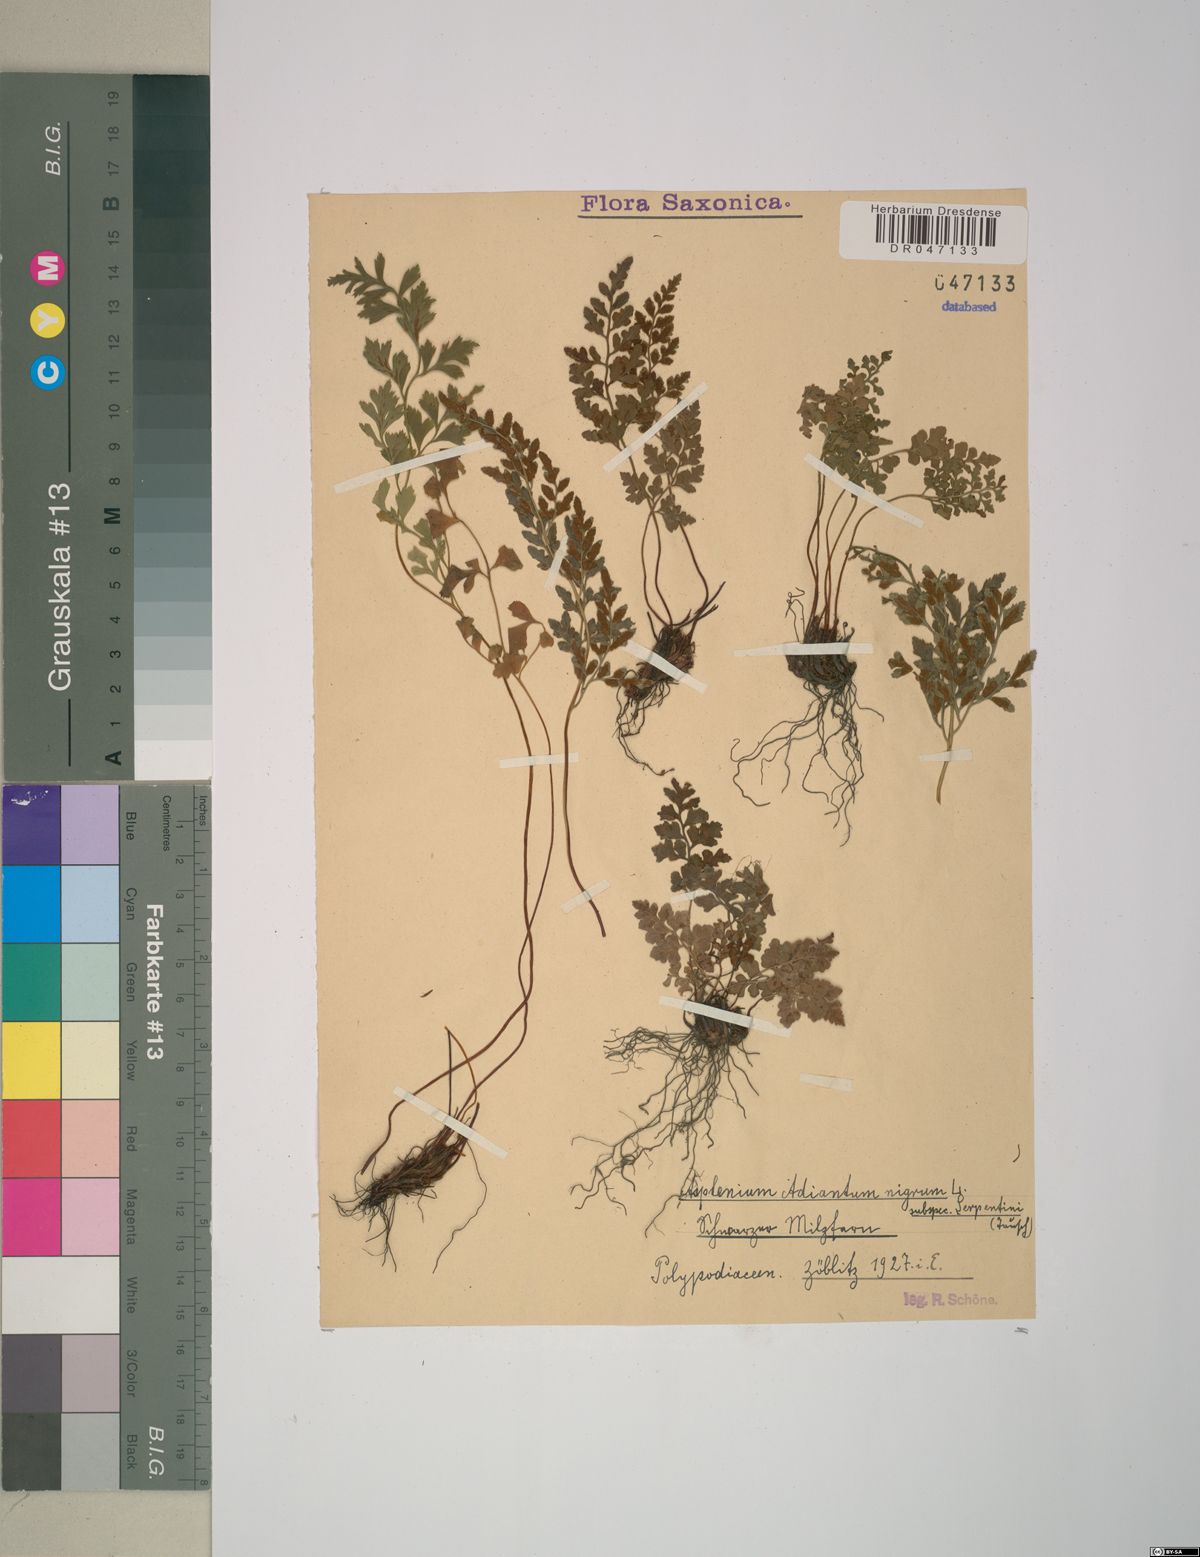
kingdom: Plantae
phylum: Tracheophyta
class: Polypodiopsida
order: Polypodiales
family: Aspleniaceae
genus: Asplenium
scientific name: Asplenium cuneifolium
